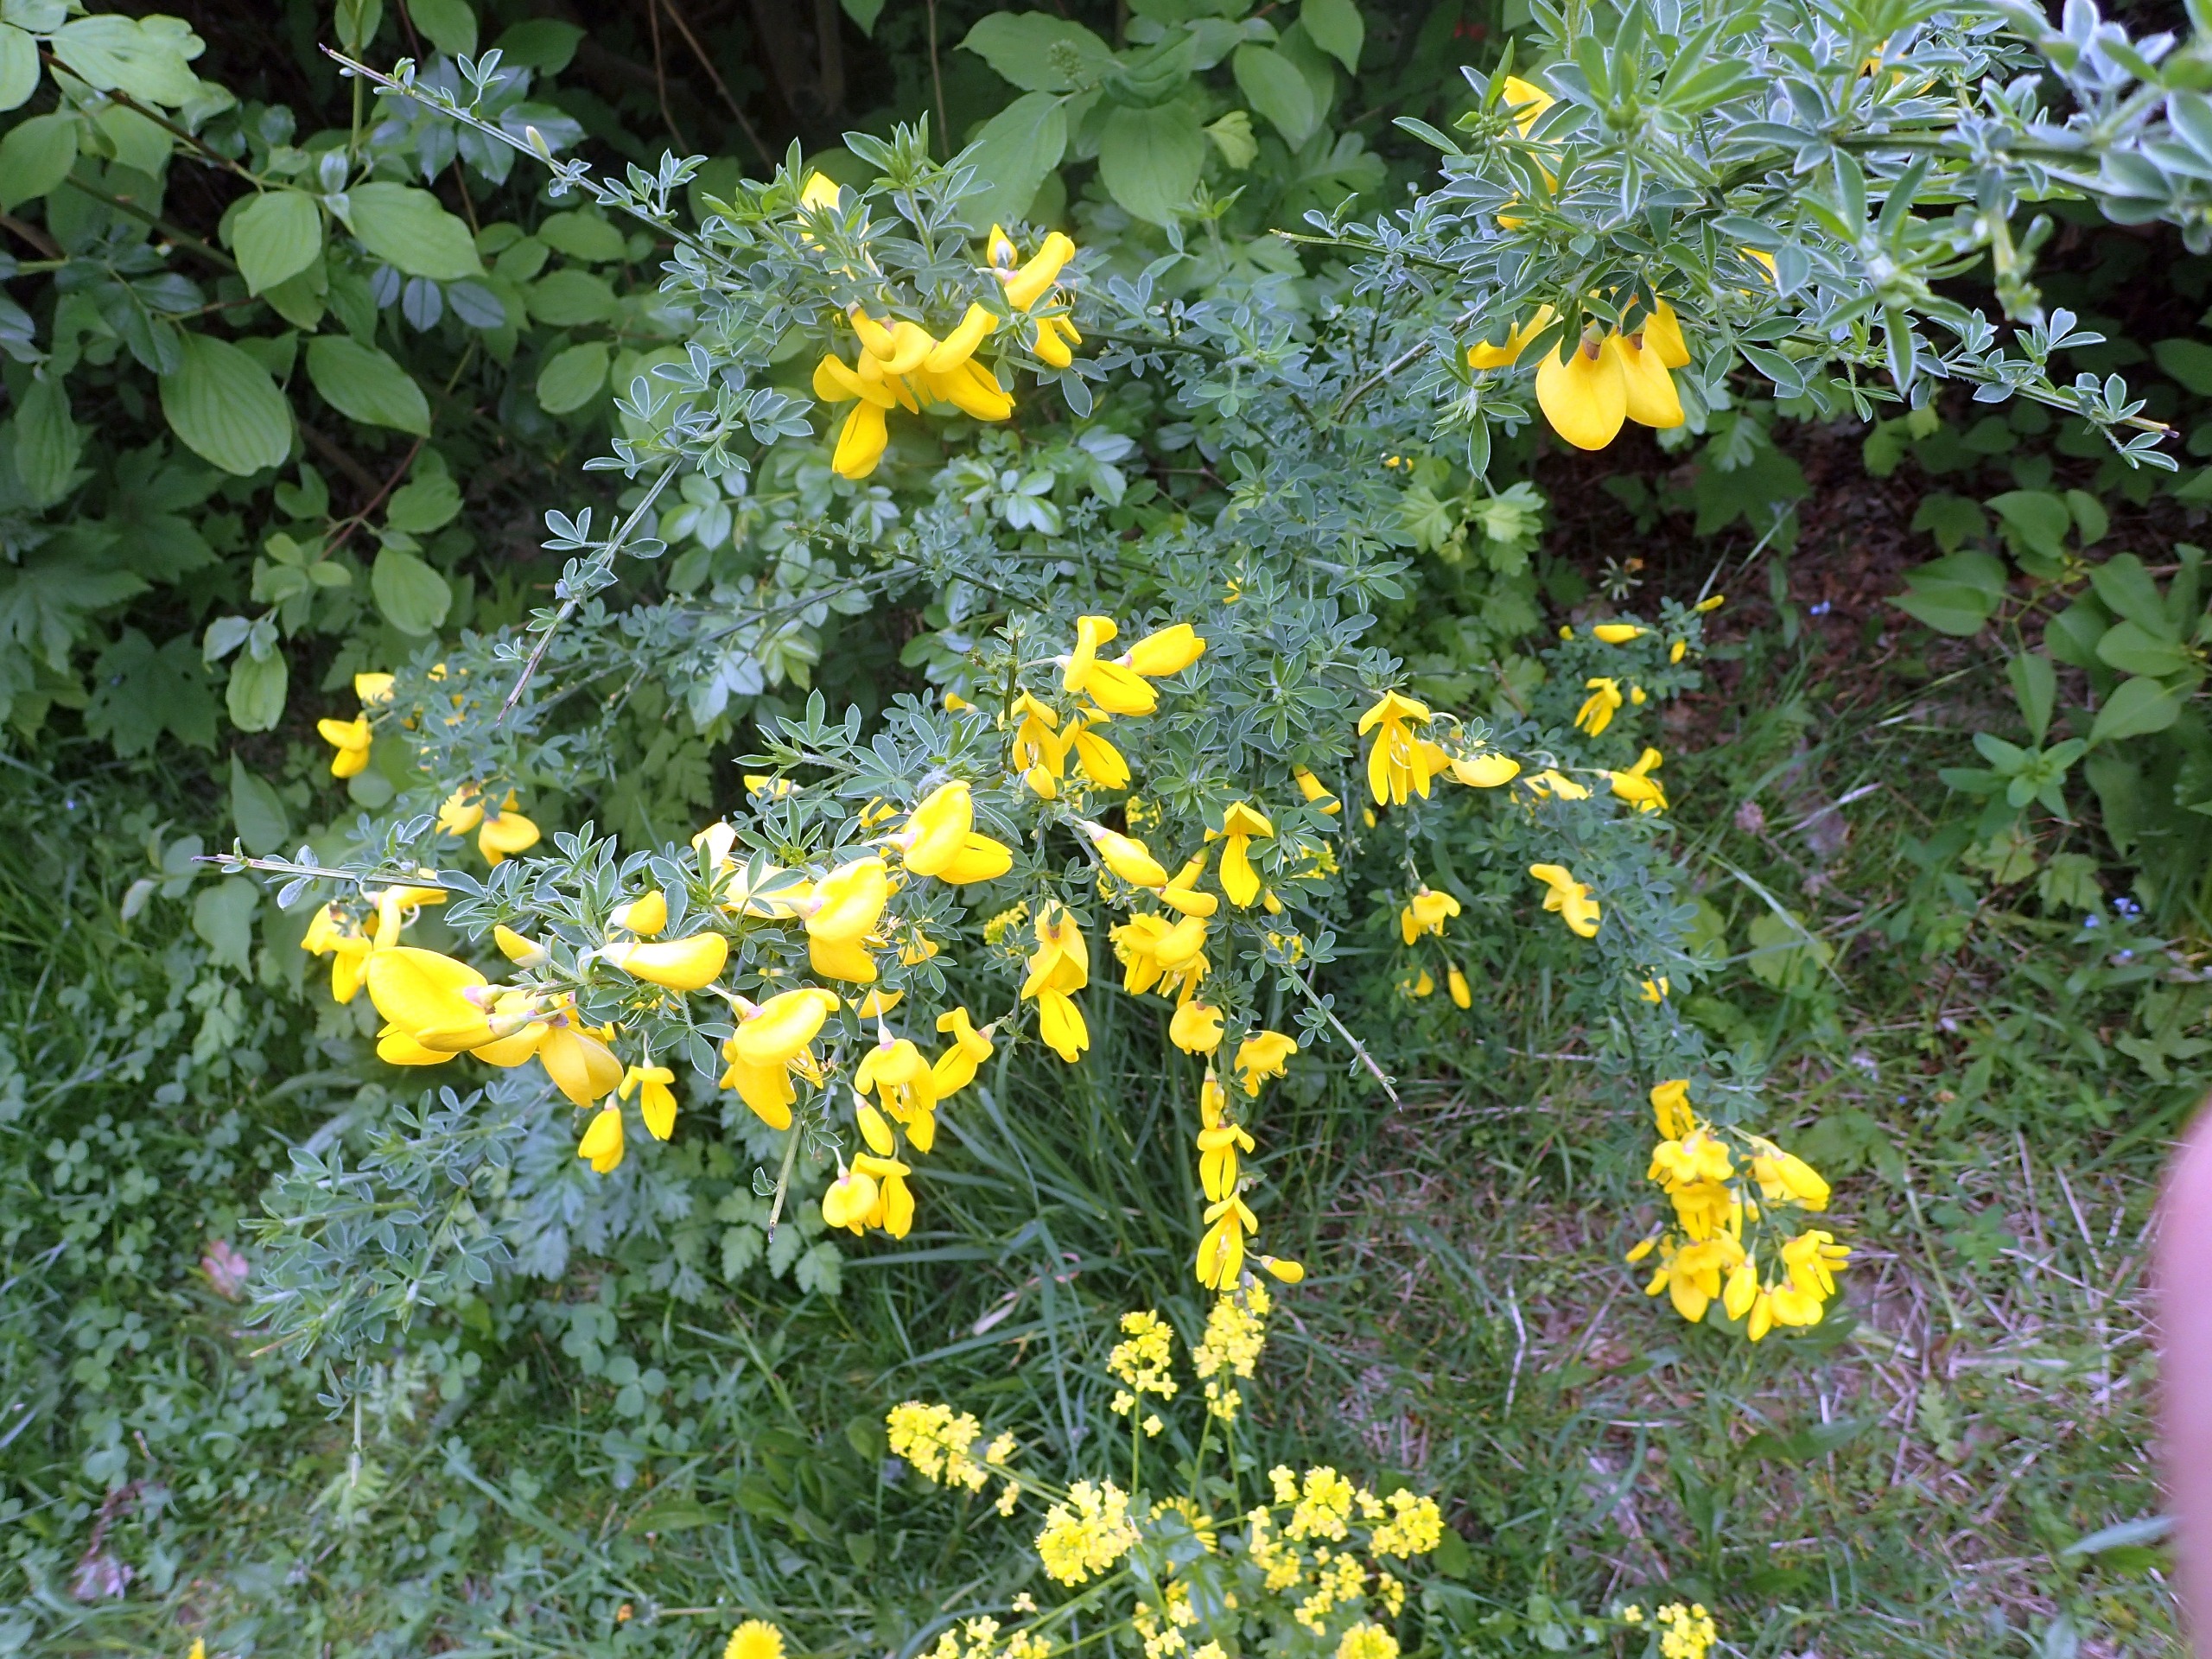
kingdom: Plantae
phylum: Tracheophyta
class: Magnoliopsida
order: Fabales
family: Fabaceae
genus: Cytisus
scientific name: Cytisus scoparius
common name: Almindelig gyvel
